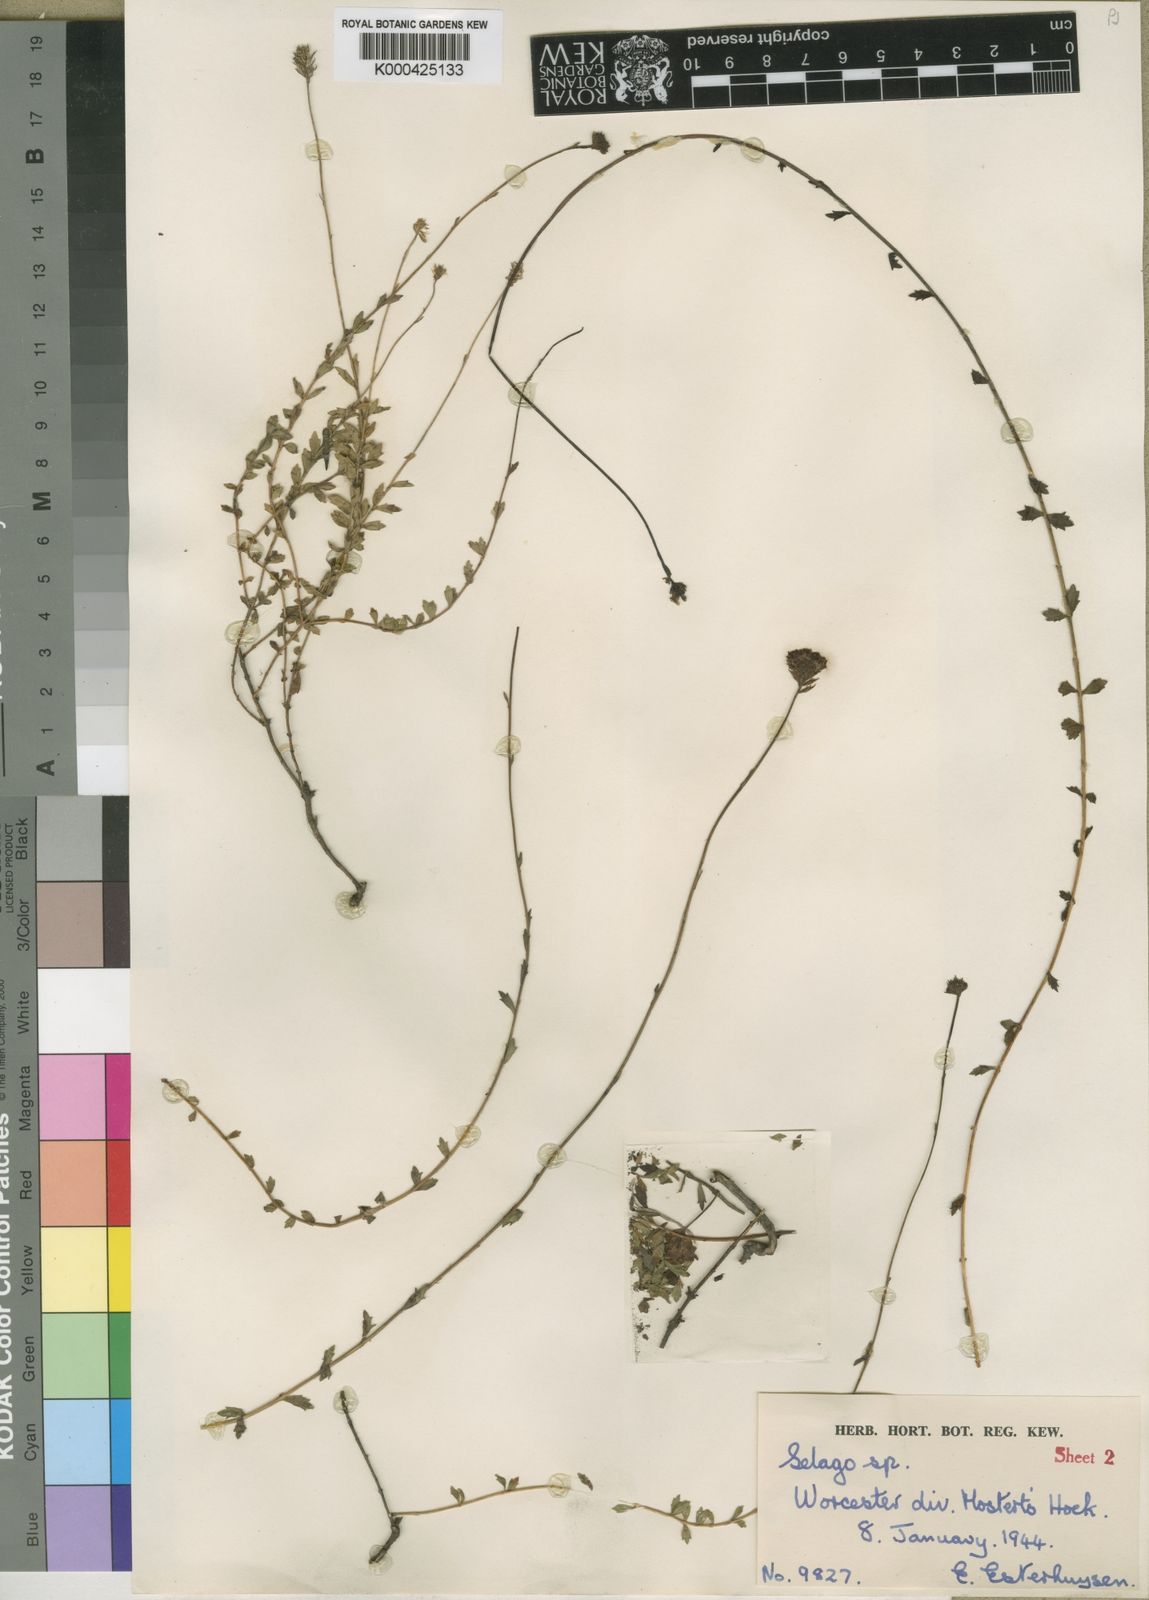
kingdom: Plantae
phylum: Tracheophyta
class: Magnoliopsida
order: Lamiales
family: Scrophulariaceae
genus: Pseudoselago
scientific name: Pseudoselago prolixa
